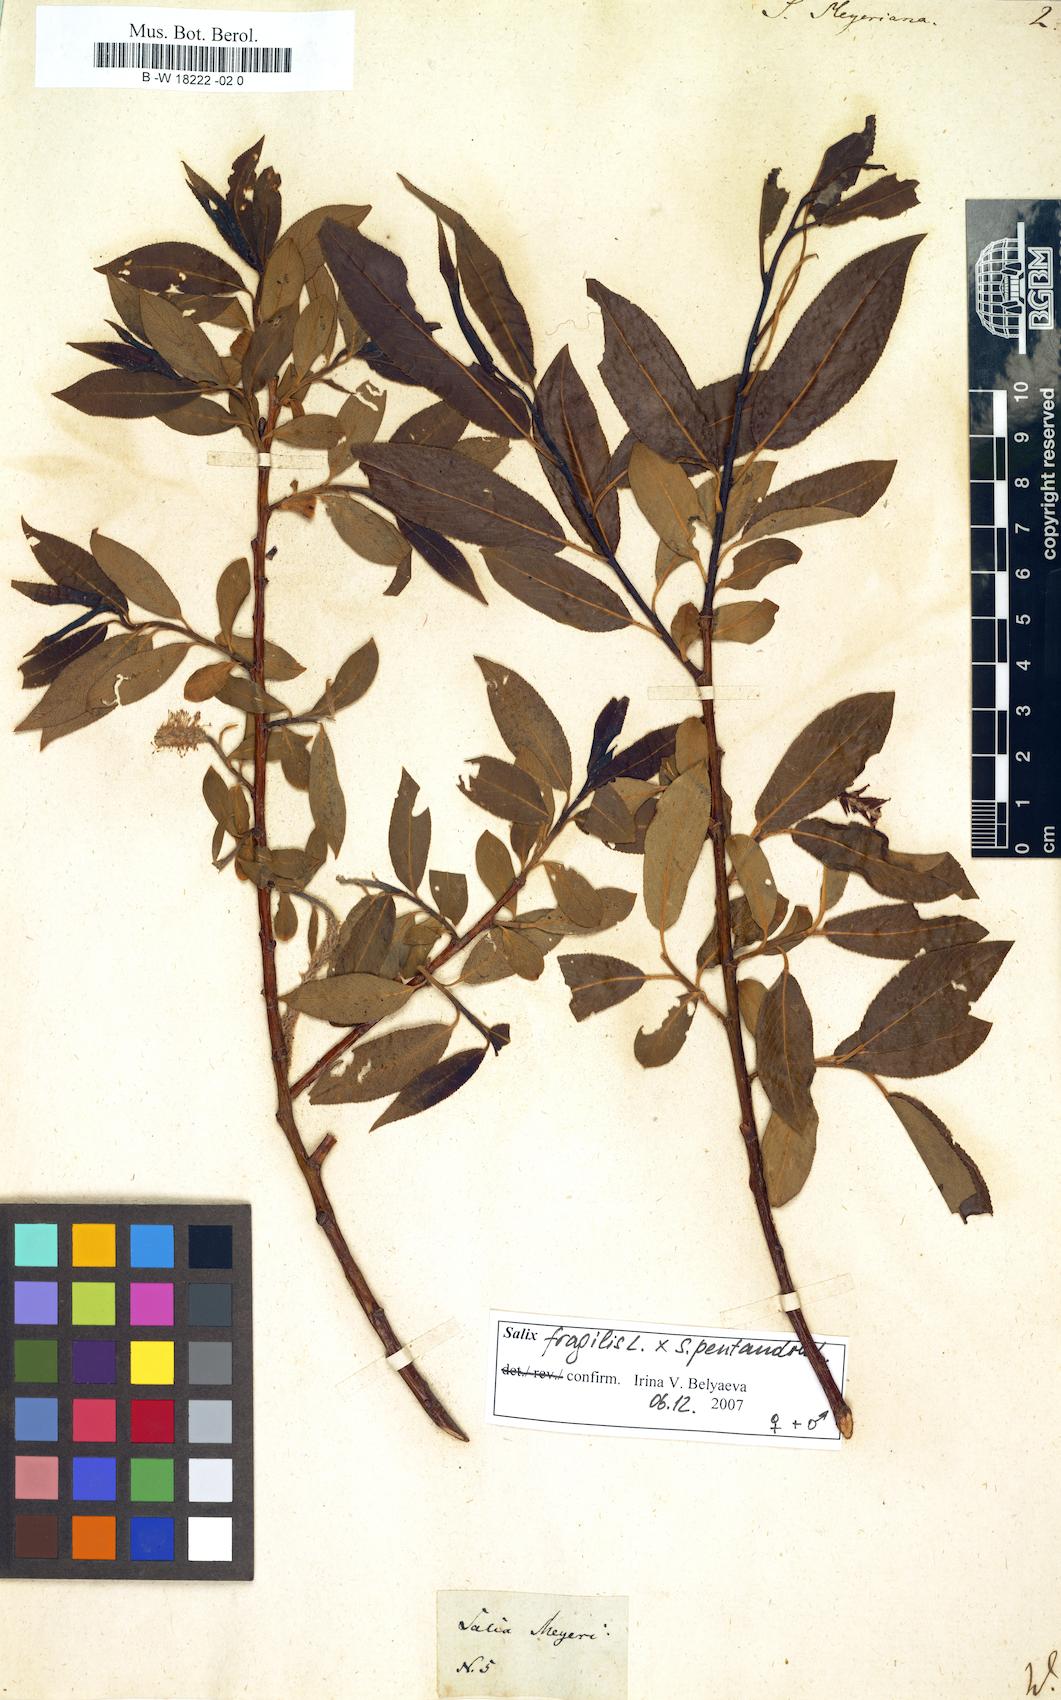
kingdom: Plantae
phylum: Tracheophyta
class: Magnoliopsida
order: Malpighiales
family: Salicaceae
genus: Salix
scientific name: Salix meyeriana
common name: Shiny-leaf willow
